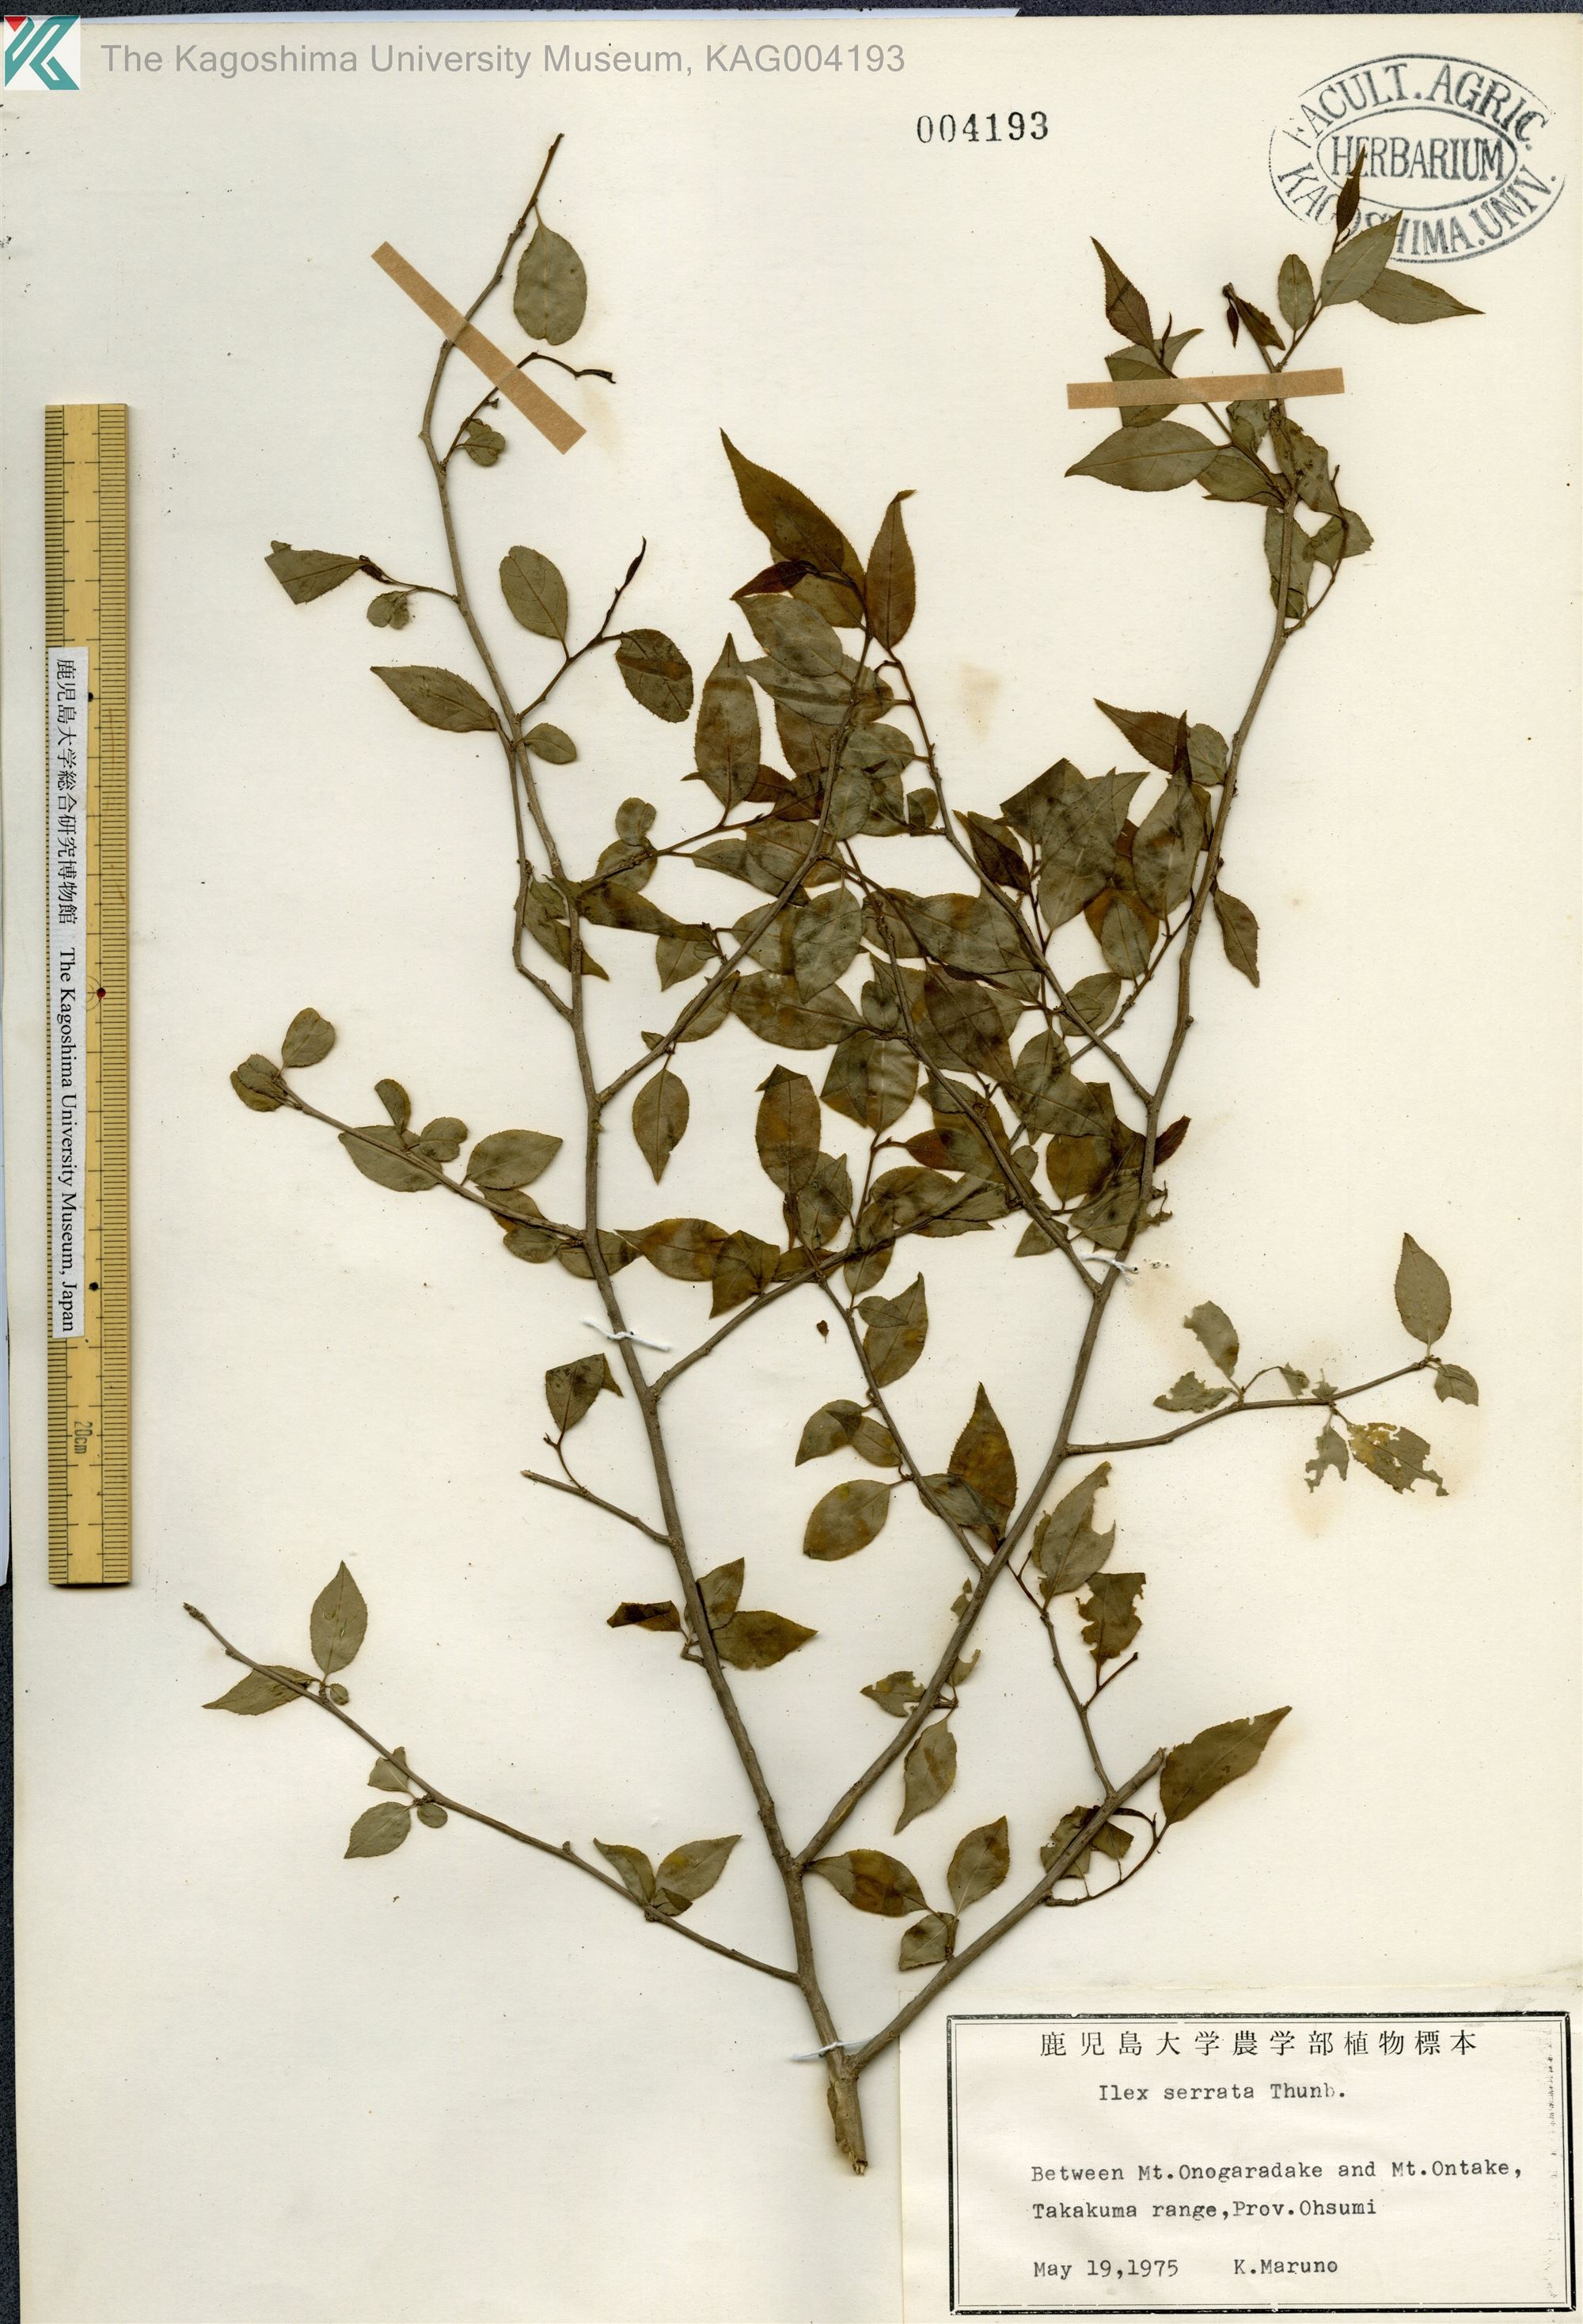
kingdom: Plantae
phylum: Tracheophyta
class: Magnoliopsida
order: Aquifoliales
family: Aquifoliaceae
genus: Ilex
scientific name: Ilex serrata
